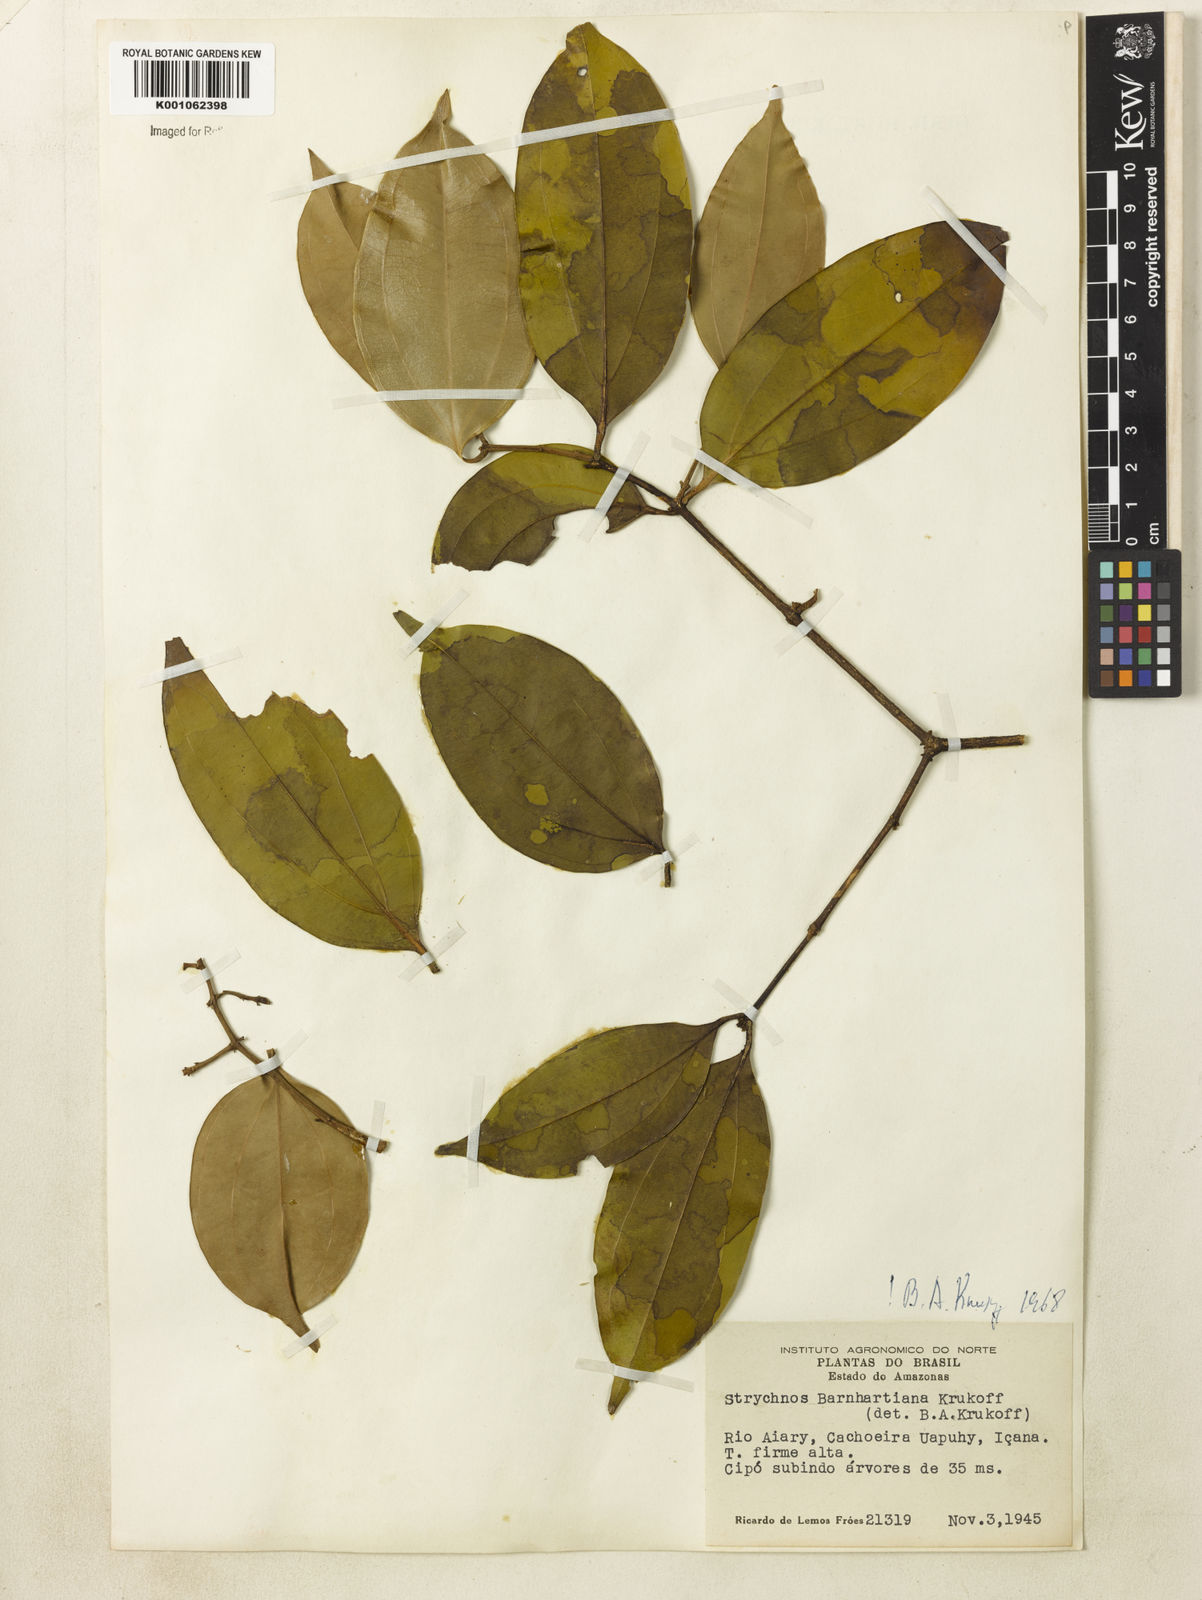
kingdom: Plantae
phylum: Tracheophyta
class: Magnoliopsida
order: Gentianales
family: Loganiaceae
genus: Strychnos
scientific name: Strychnos barnhartiana
